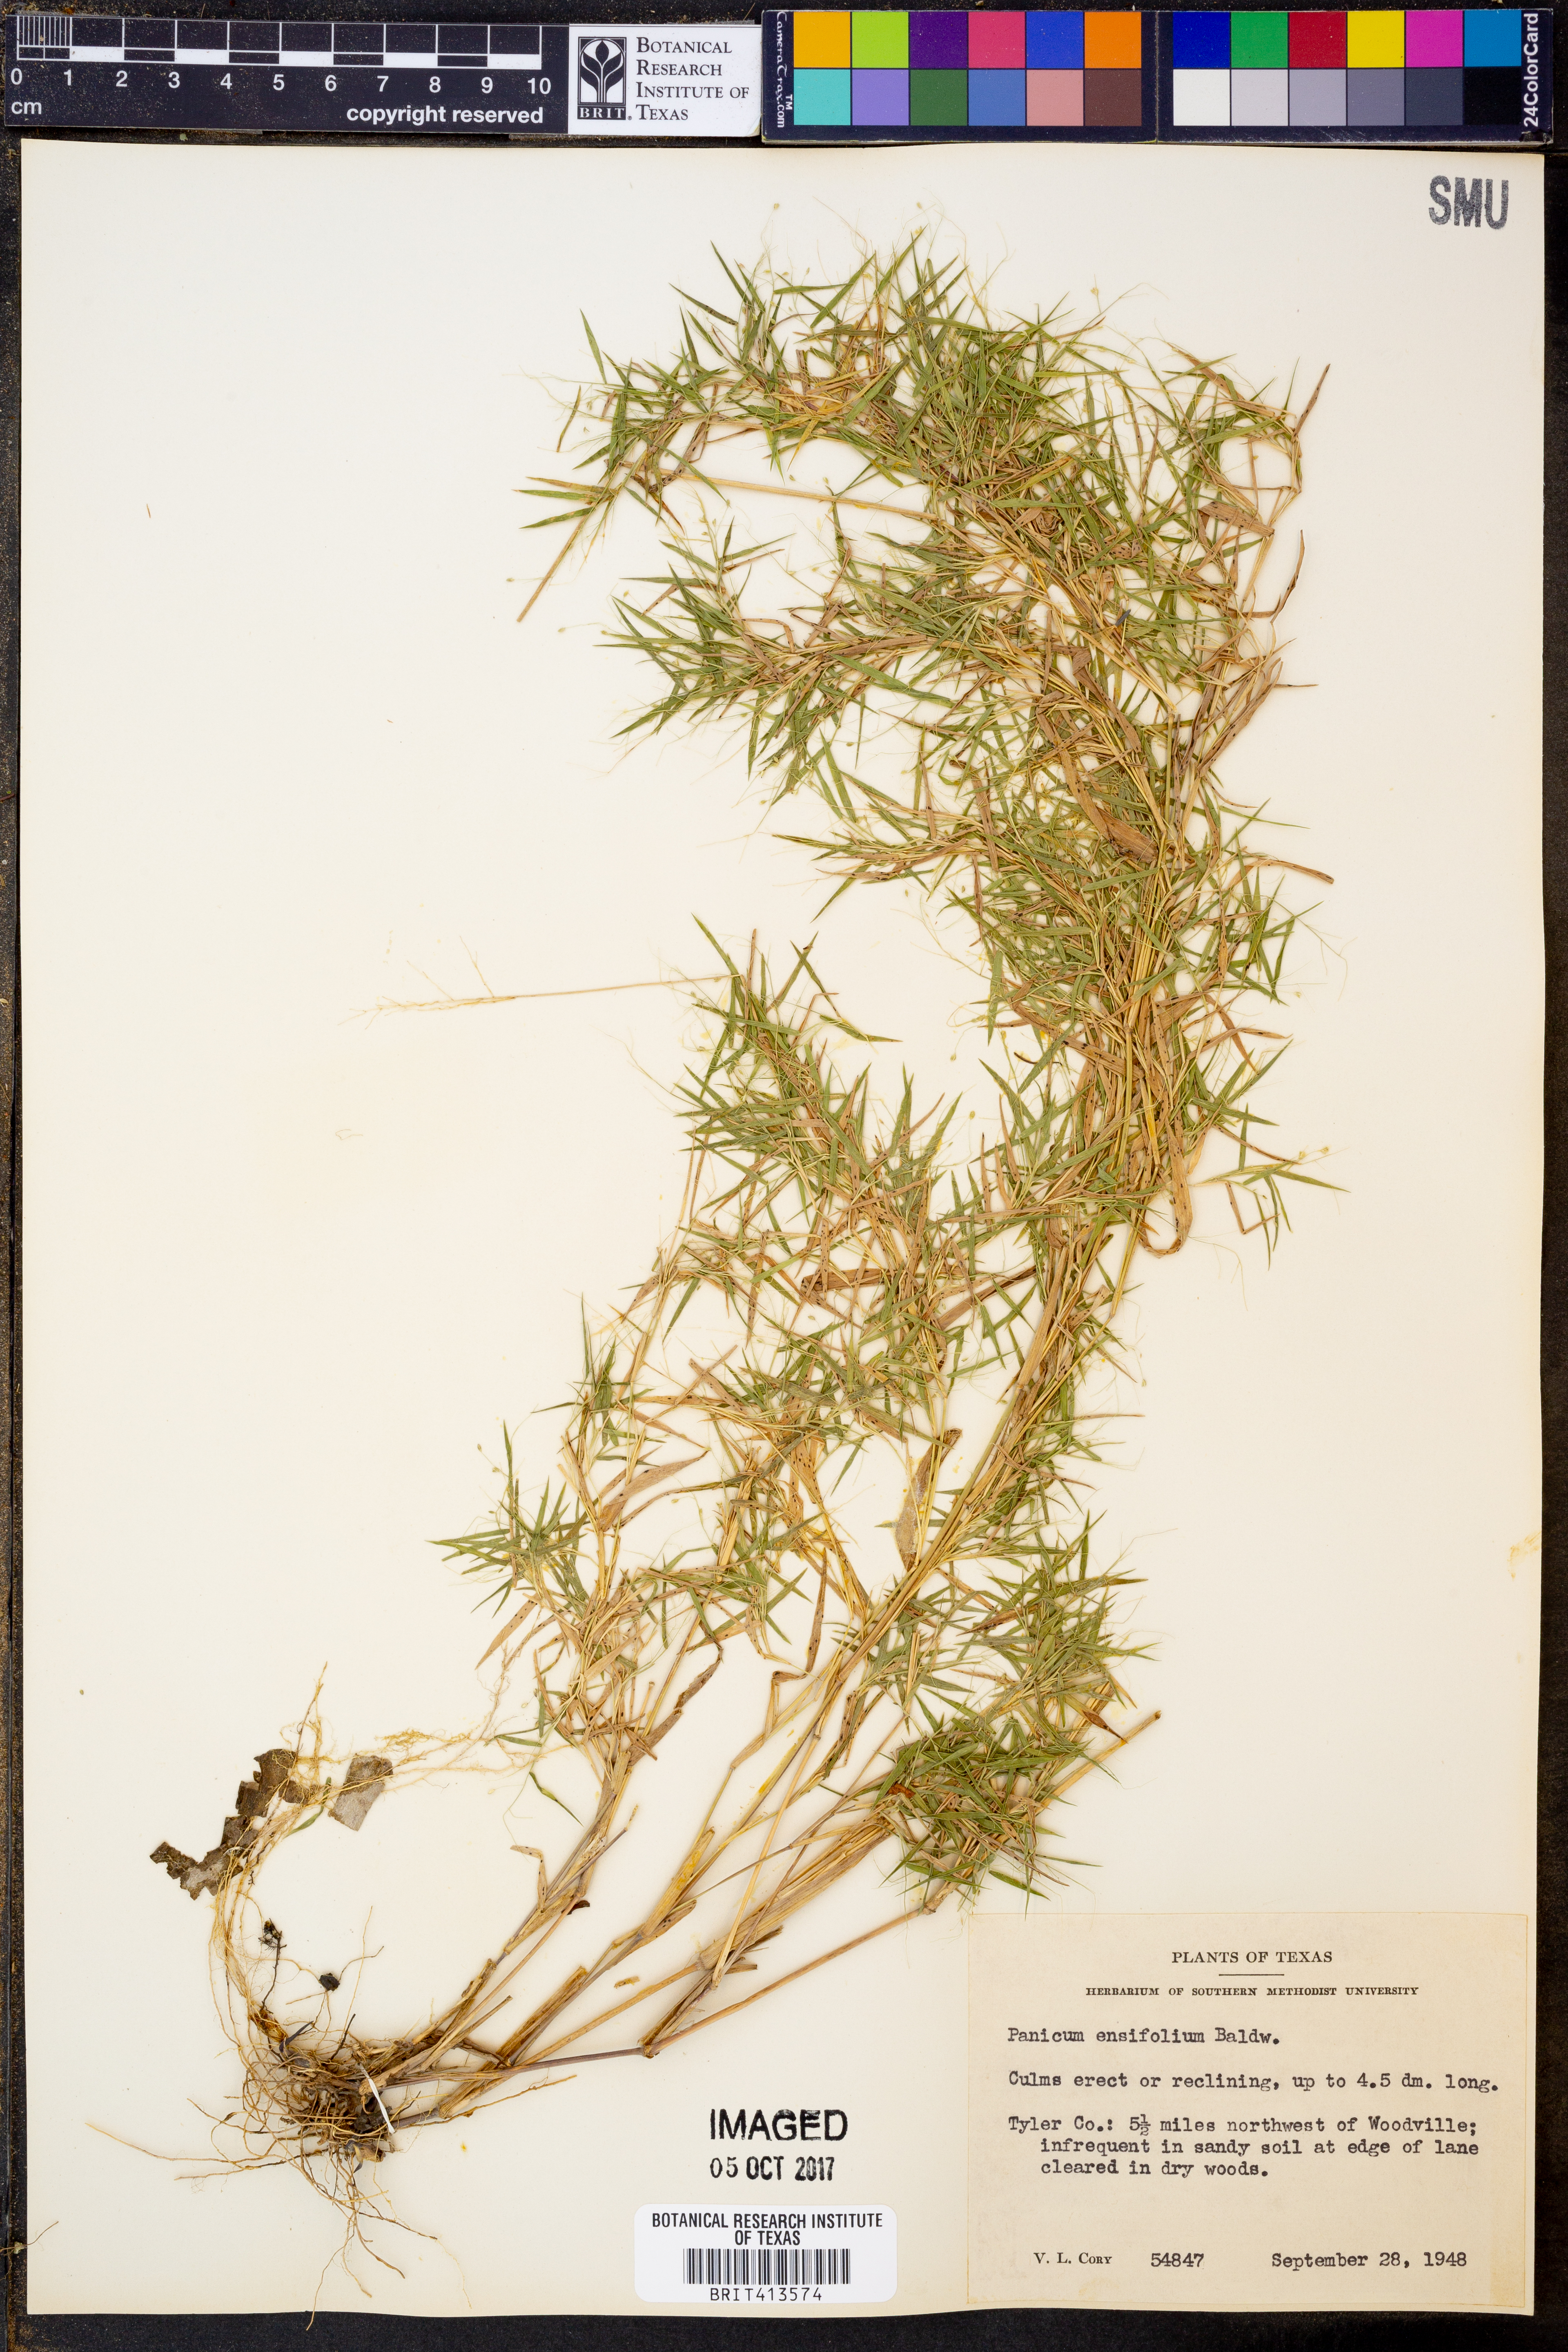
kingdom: Plantae
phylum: Tracheophyta
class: Liliopsida
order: Poales
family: Poaceae
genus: Dichanthelium
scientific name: Dichanthelium ensifolium
